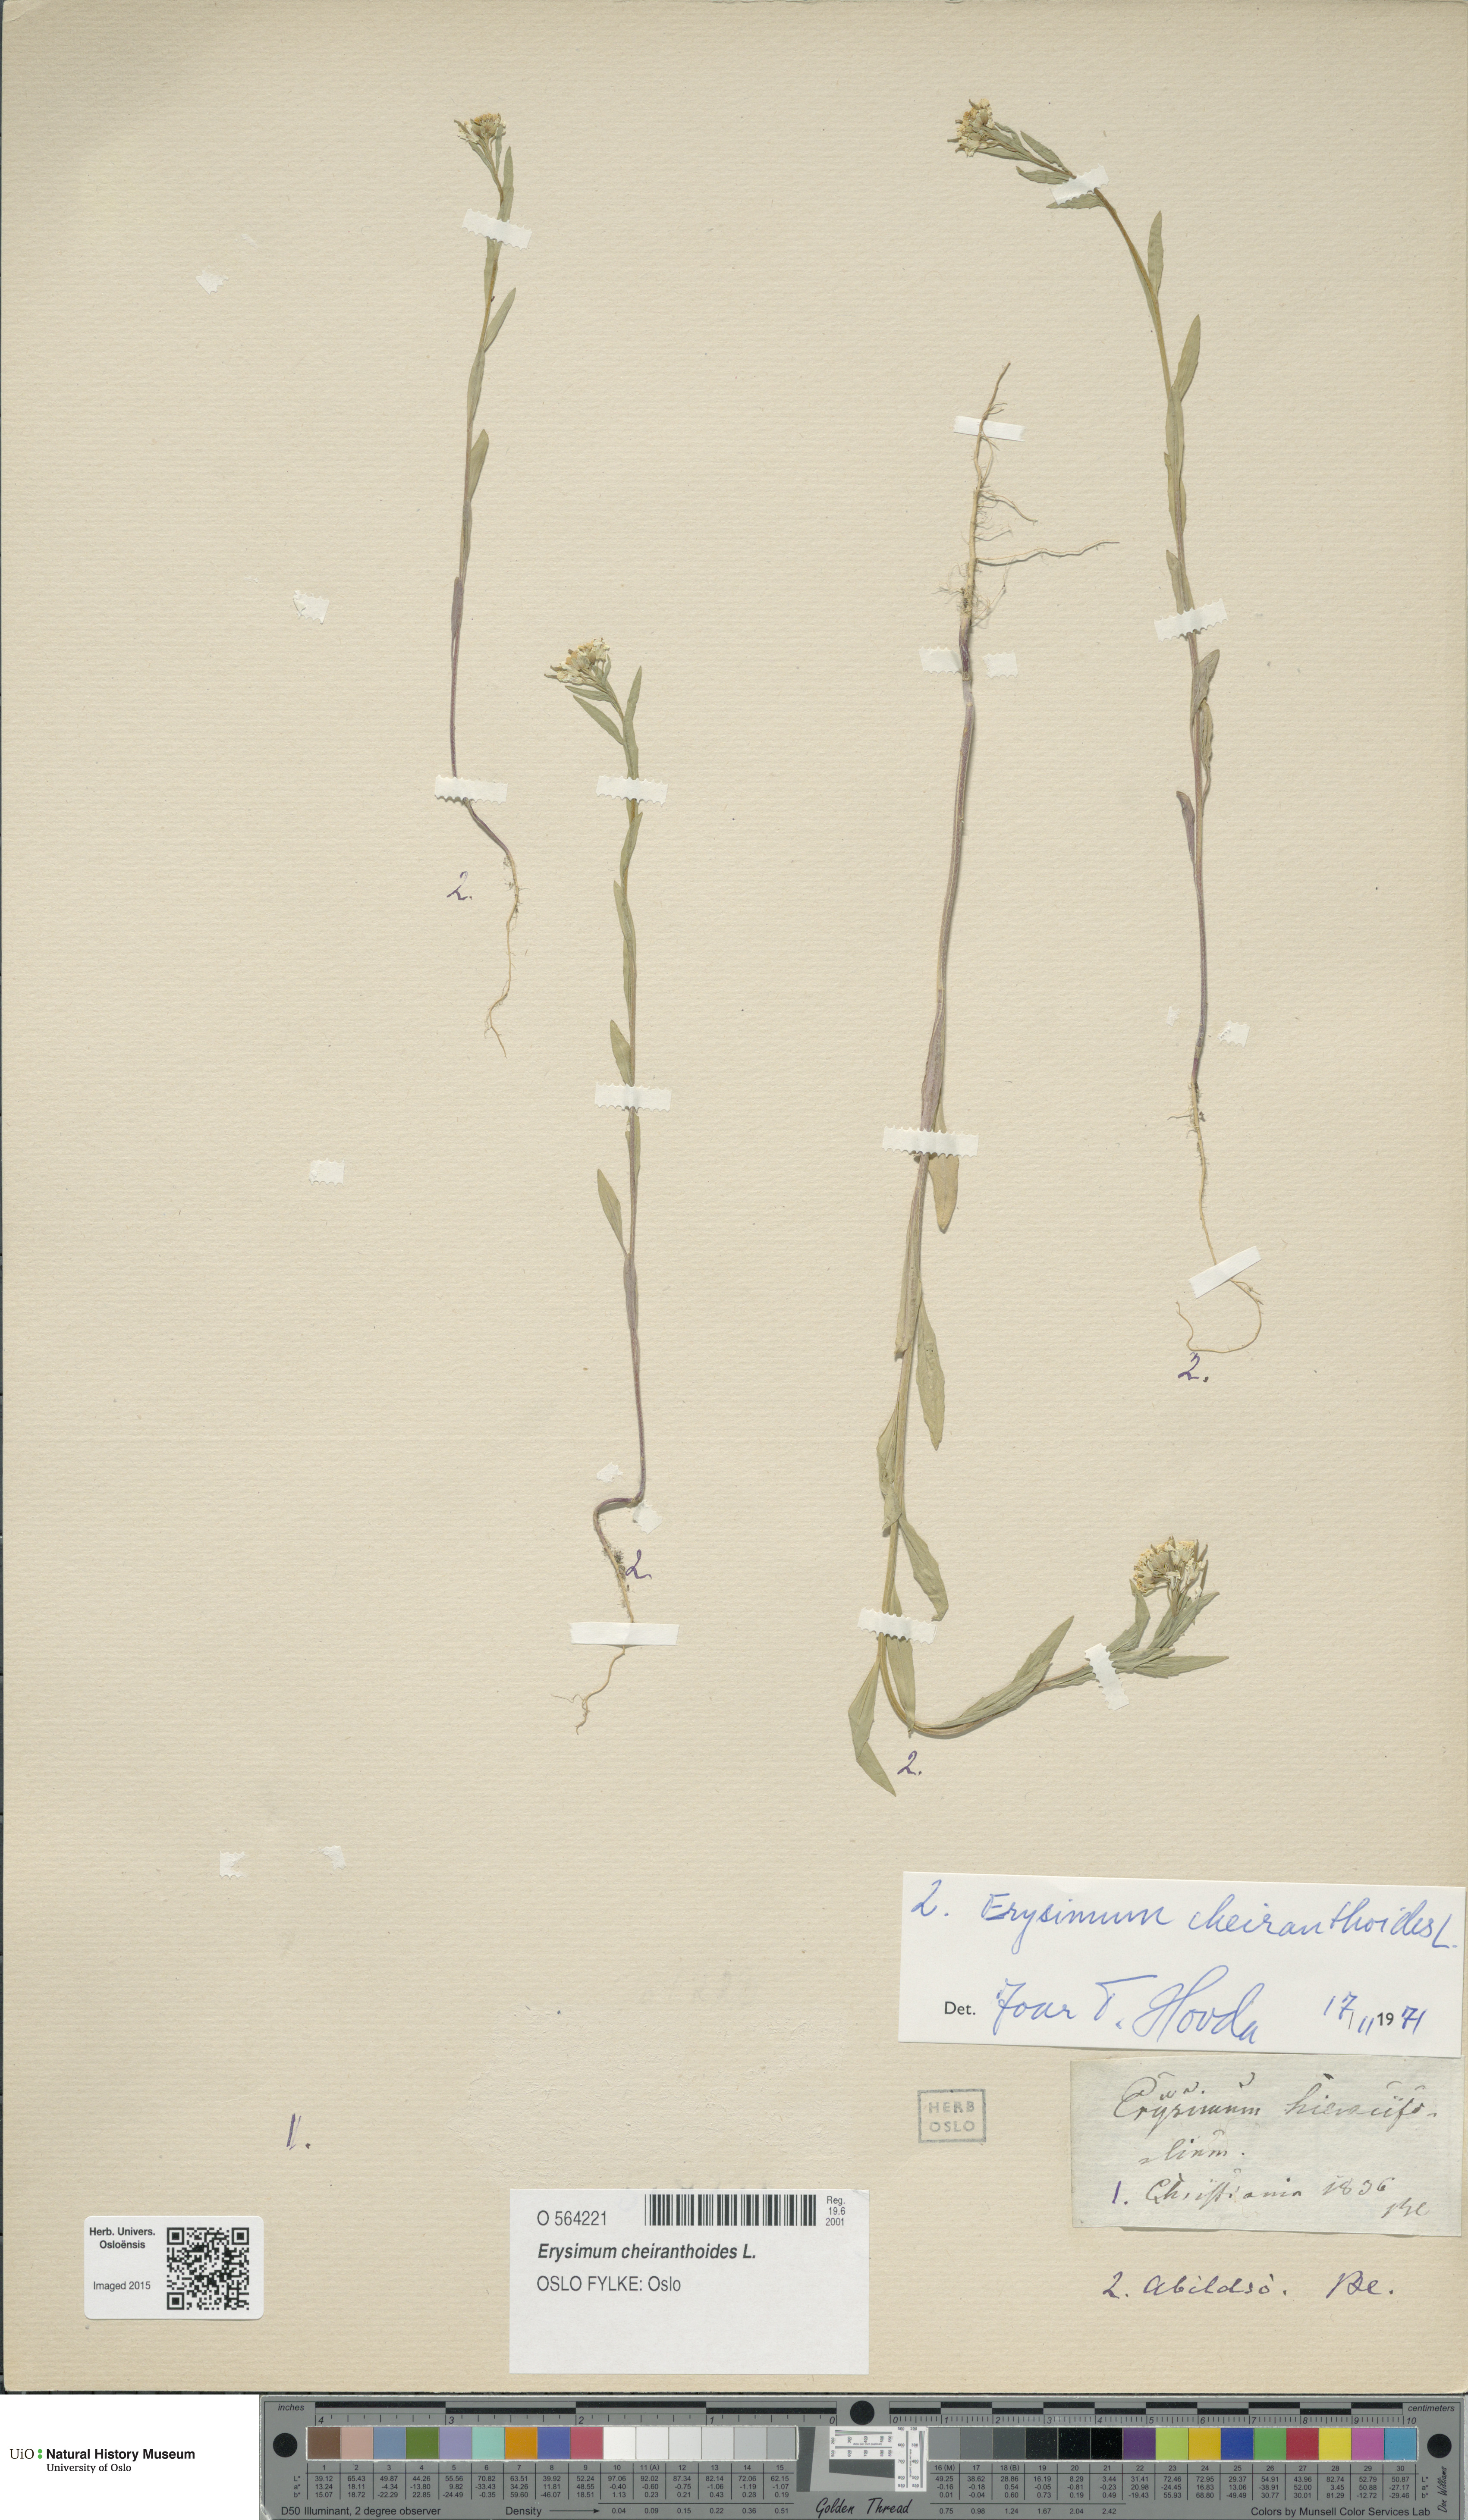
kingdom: Plantae
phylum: Tracheophyta
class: Magnoliopsida
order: Brassicales
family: Brassicaceae
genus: Erysimum
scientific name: Erysimum cheiranthoides
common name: Treacle mustard
